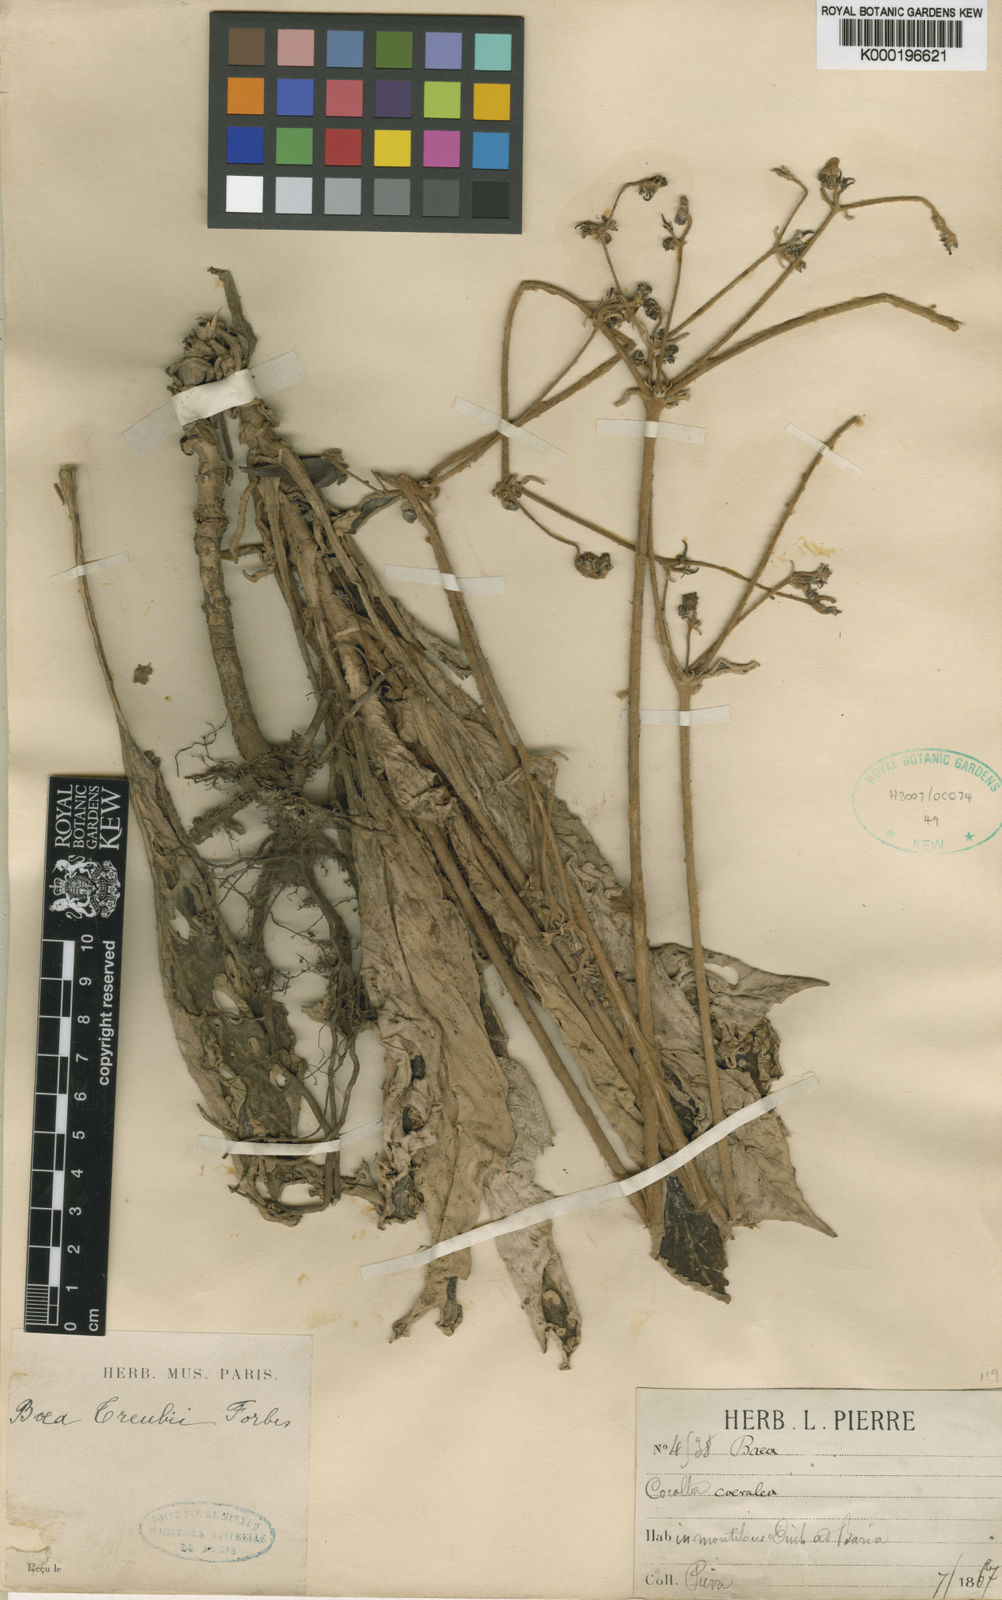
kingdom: Plantae
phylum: Tracheophyta
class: Magnoliopsida
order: Lamiales
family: Gesneriaceae
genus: Paraboea
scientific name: Paraboea dictyoneura
